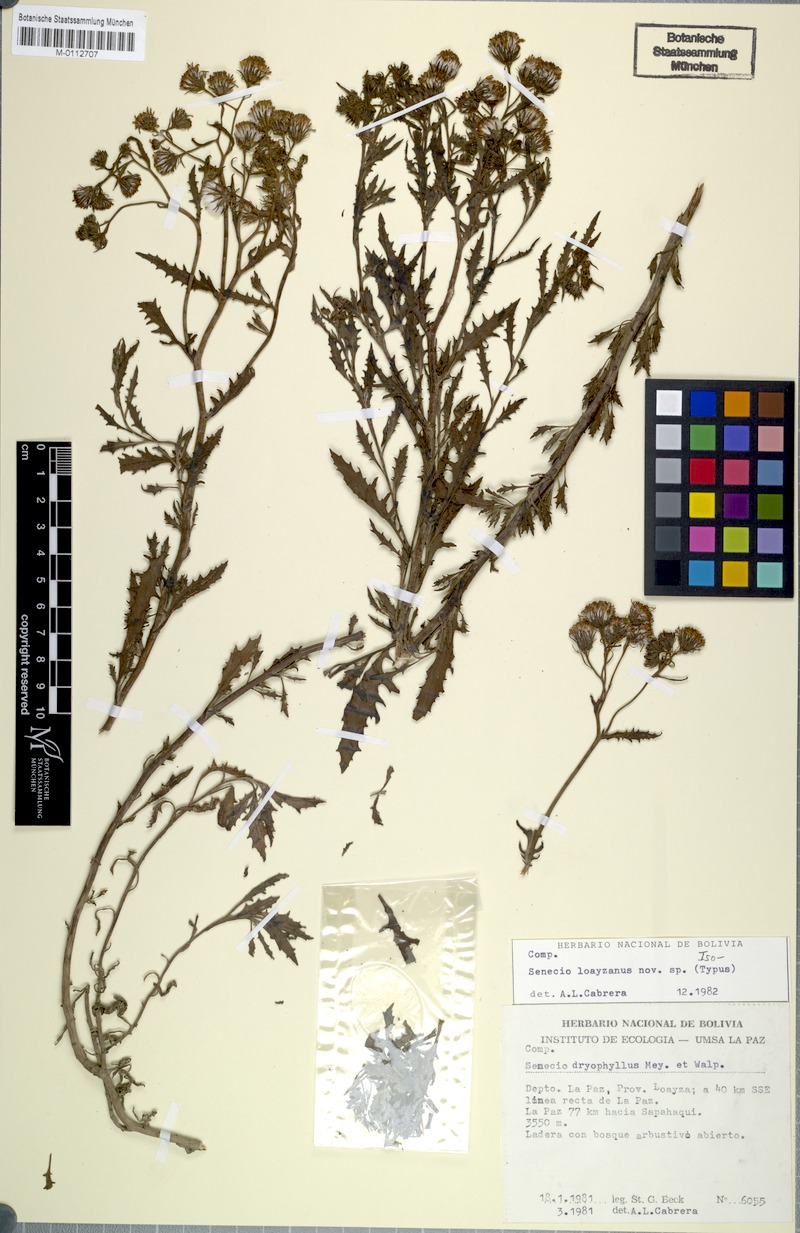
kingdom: Plantae
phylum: Tracheophyta
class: Magnoliopsida
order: Asterales
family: Asteraceae
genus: Senecio
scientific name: Senecio loayzanus
